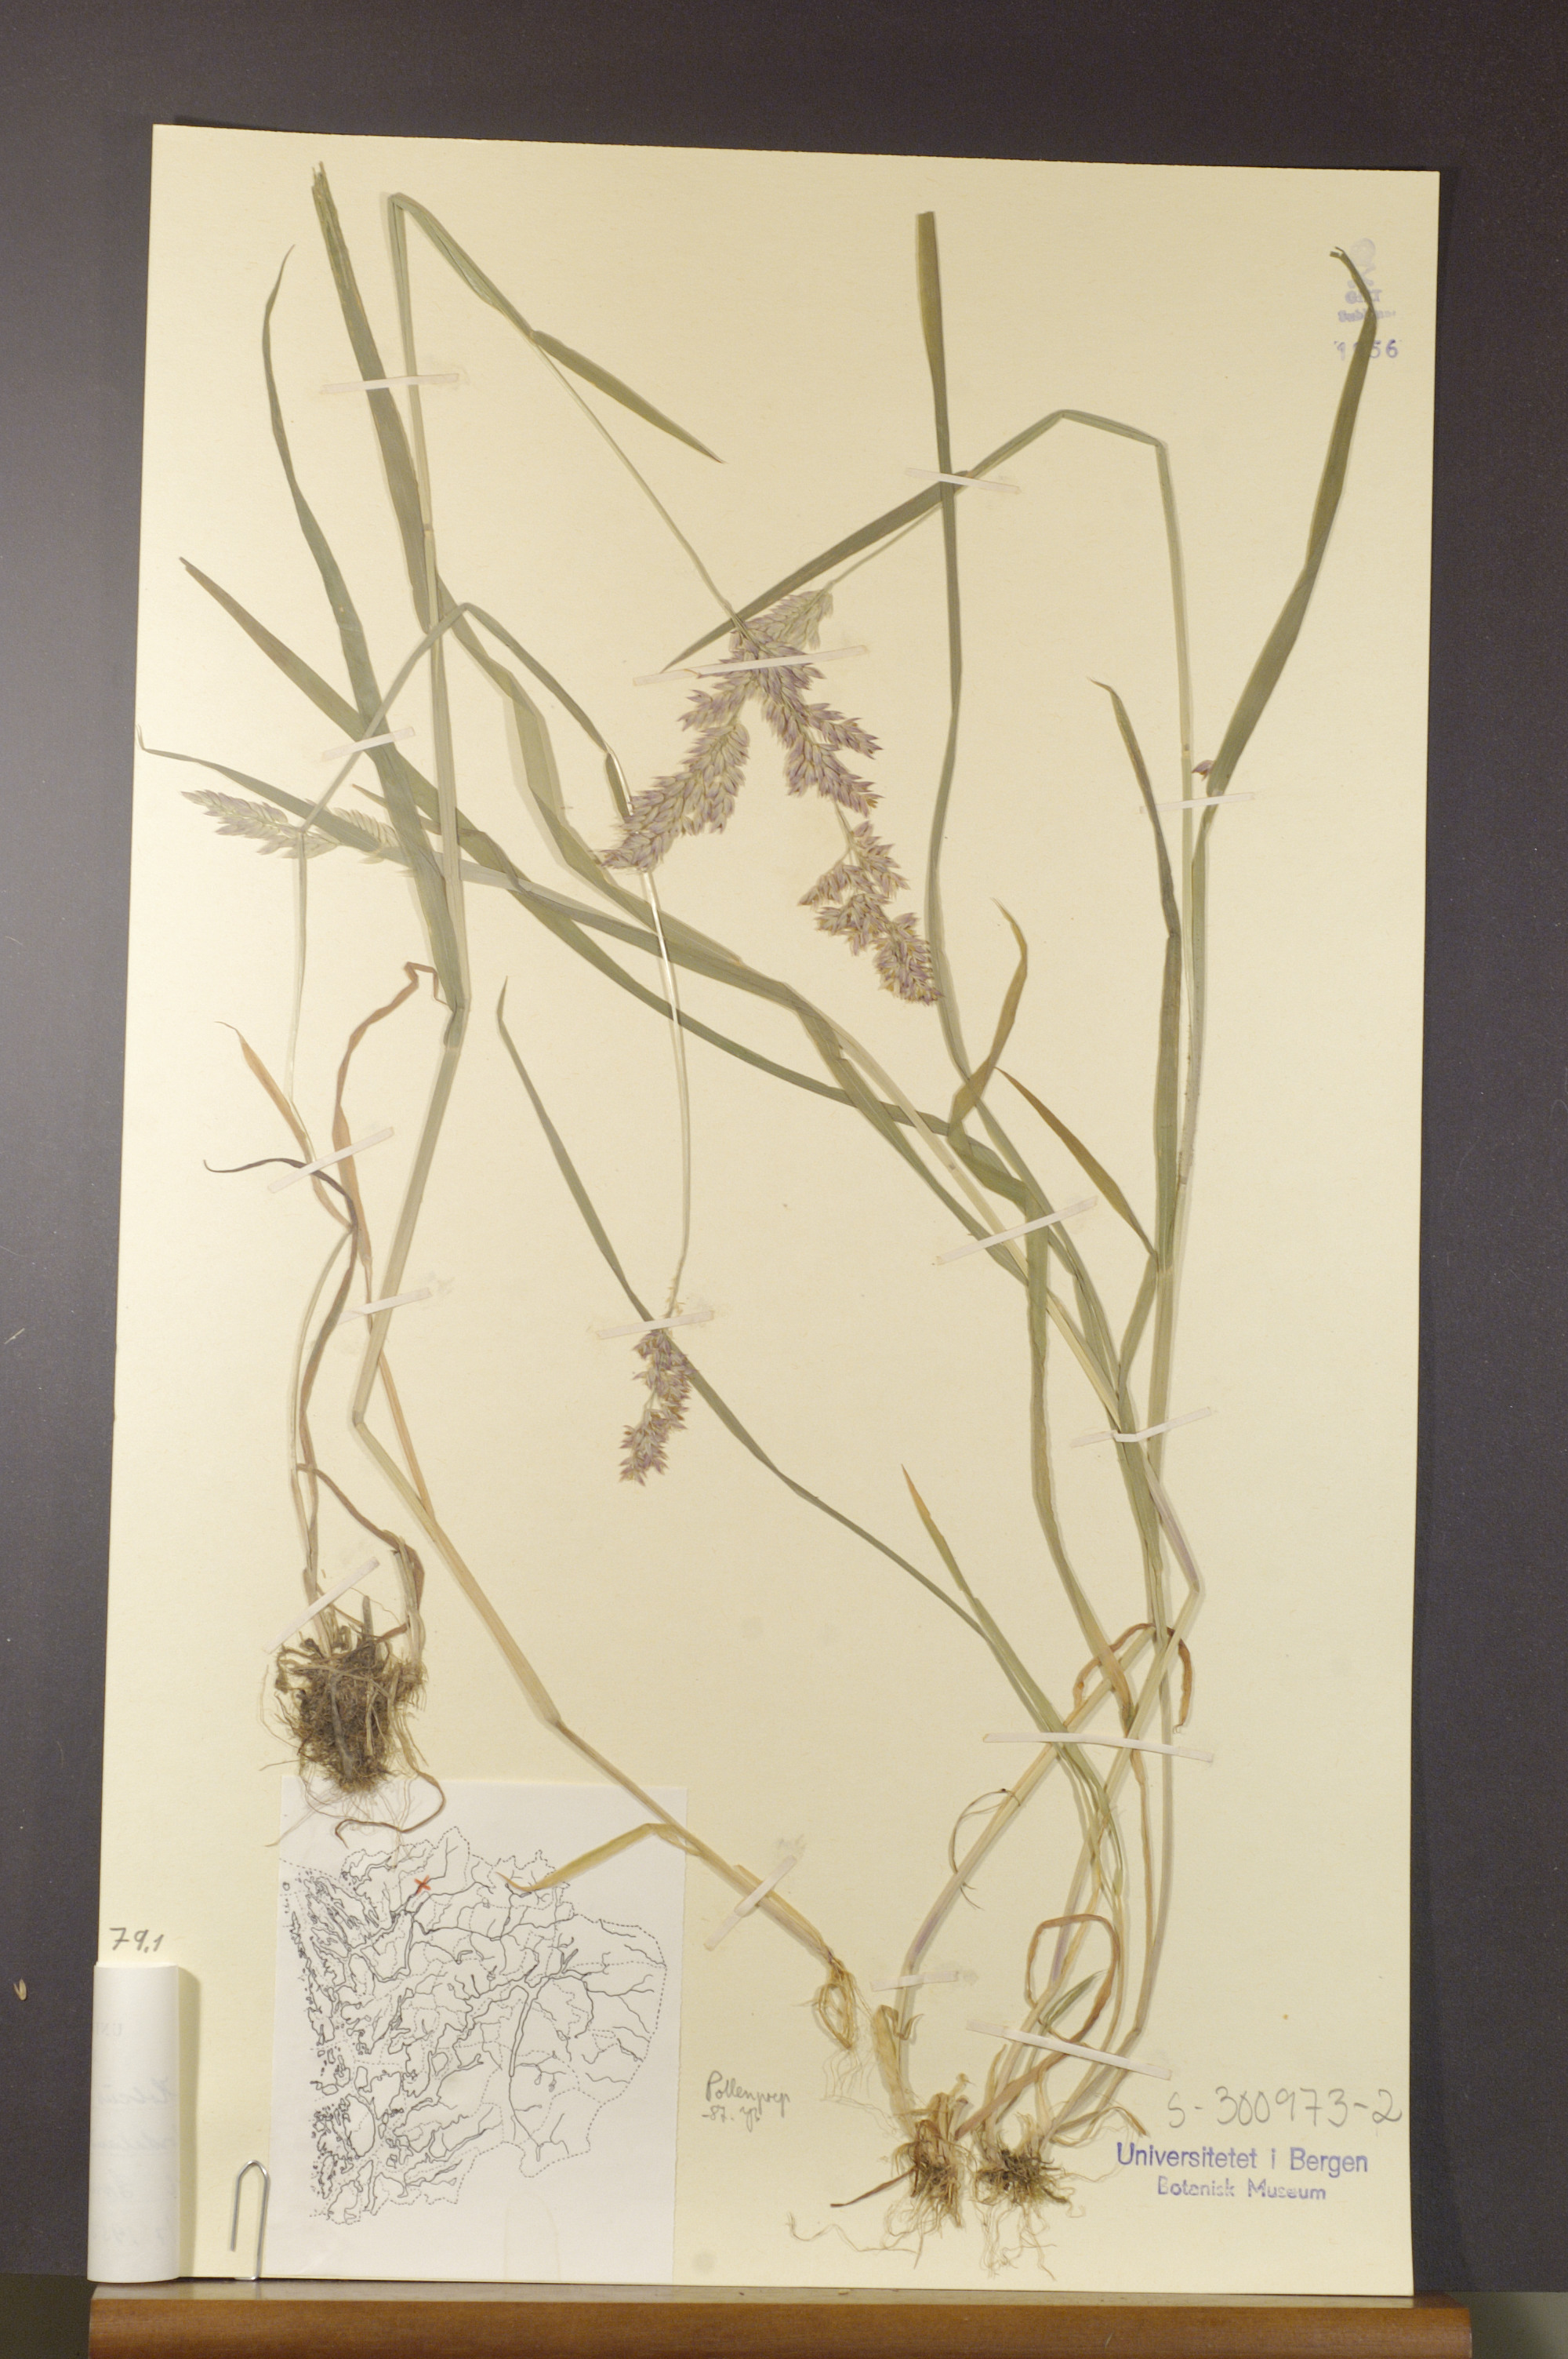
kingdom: Plantae
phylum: Tracheophyta
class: Liliopsida
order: Poales
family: Poaceae
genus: Holcus
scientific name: Holcus lanatus
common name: Yorkshire-fog
